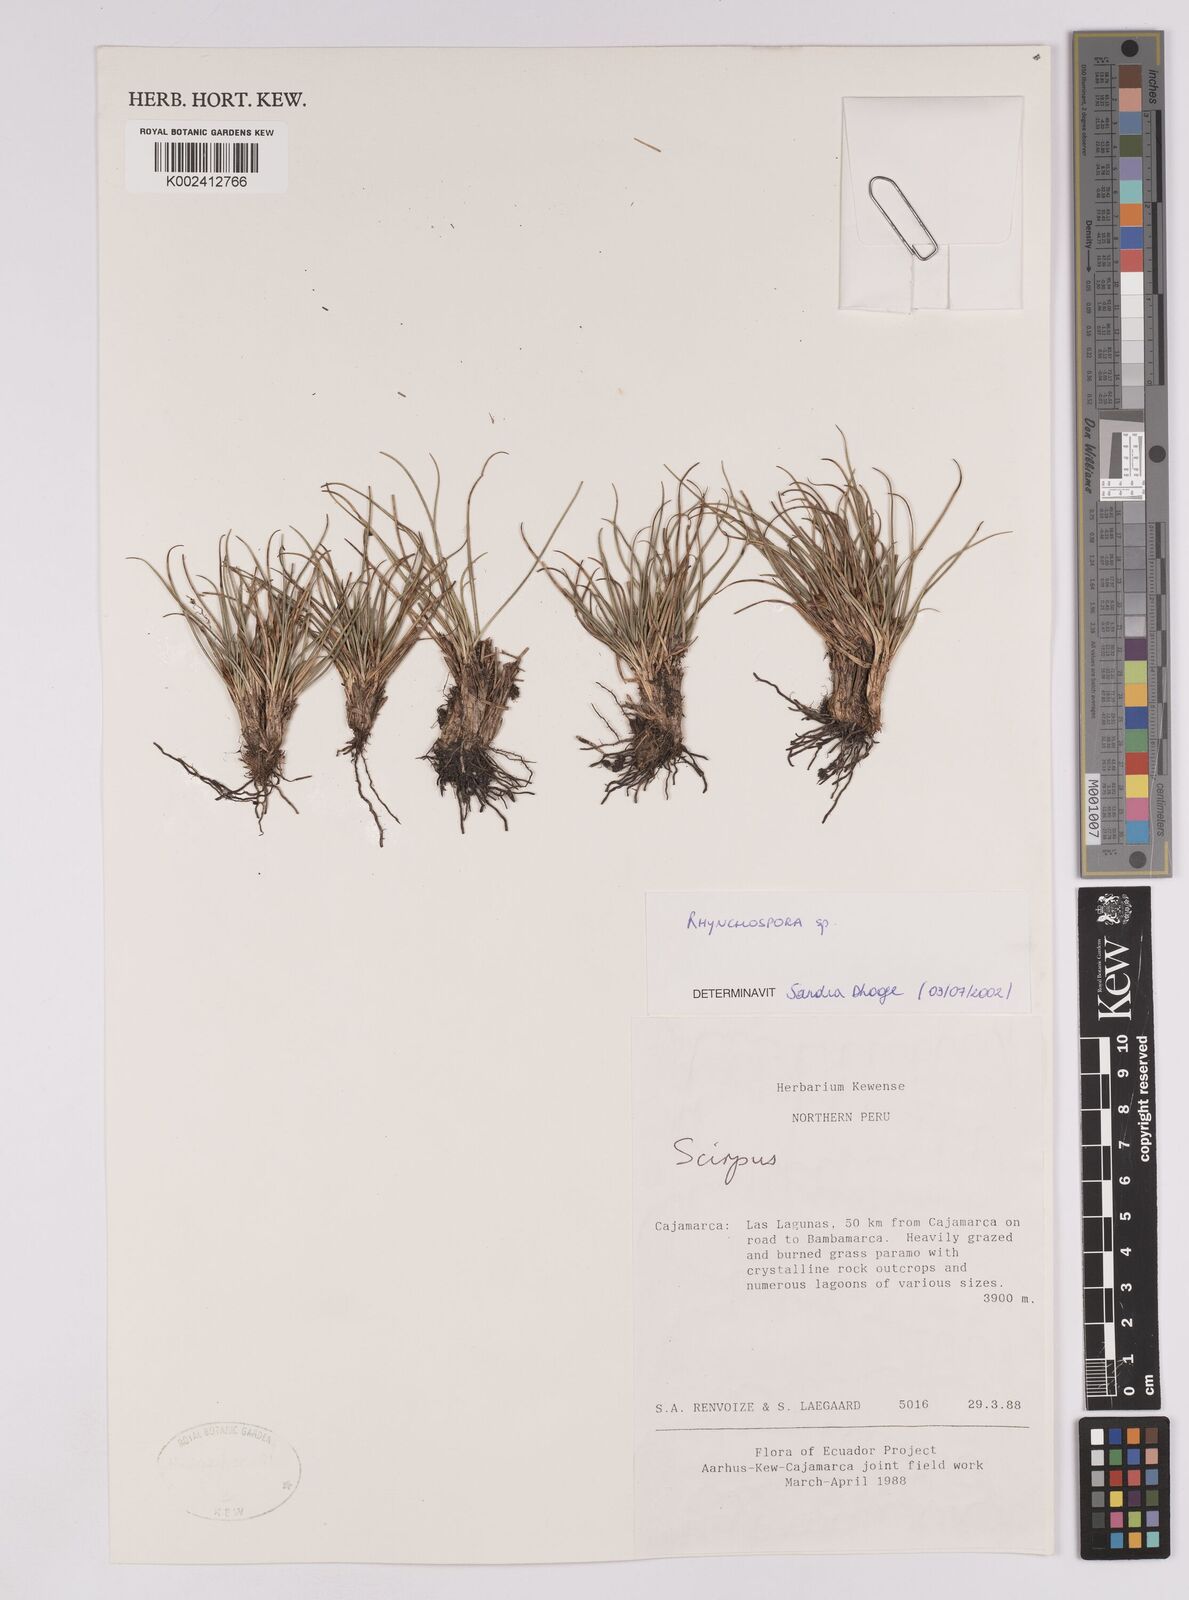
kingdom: Plantae
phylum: Tracheophyta
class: Liliopsida
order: Poales
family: Cyperaceae
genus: Rhynchospora
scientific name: Rhynchospora
